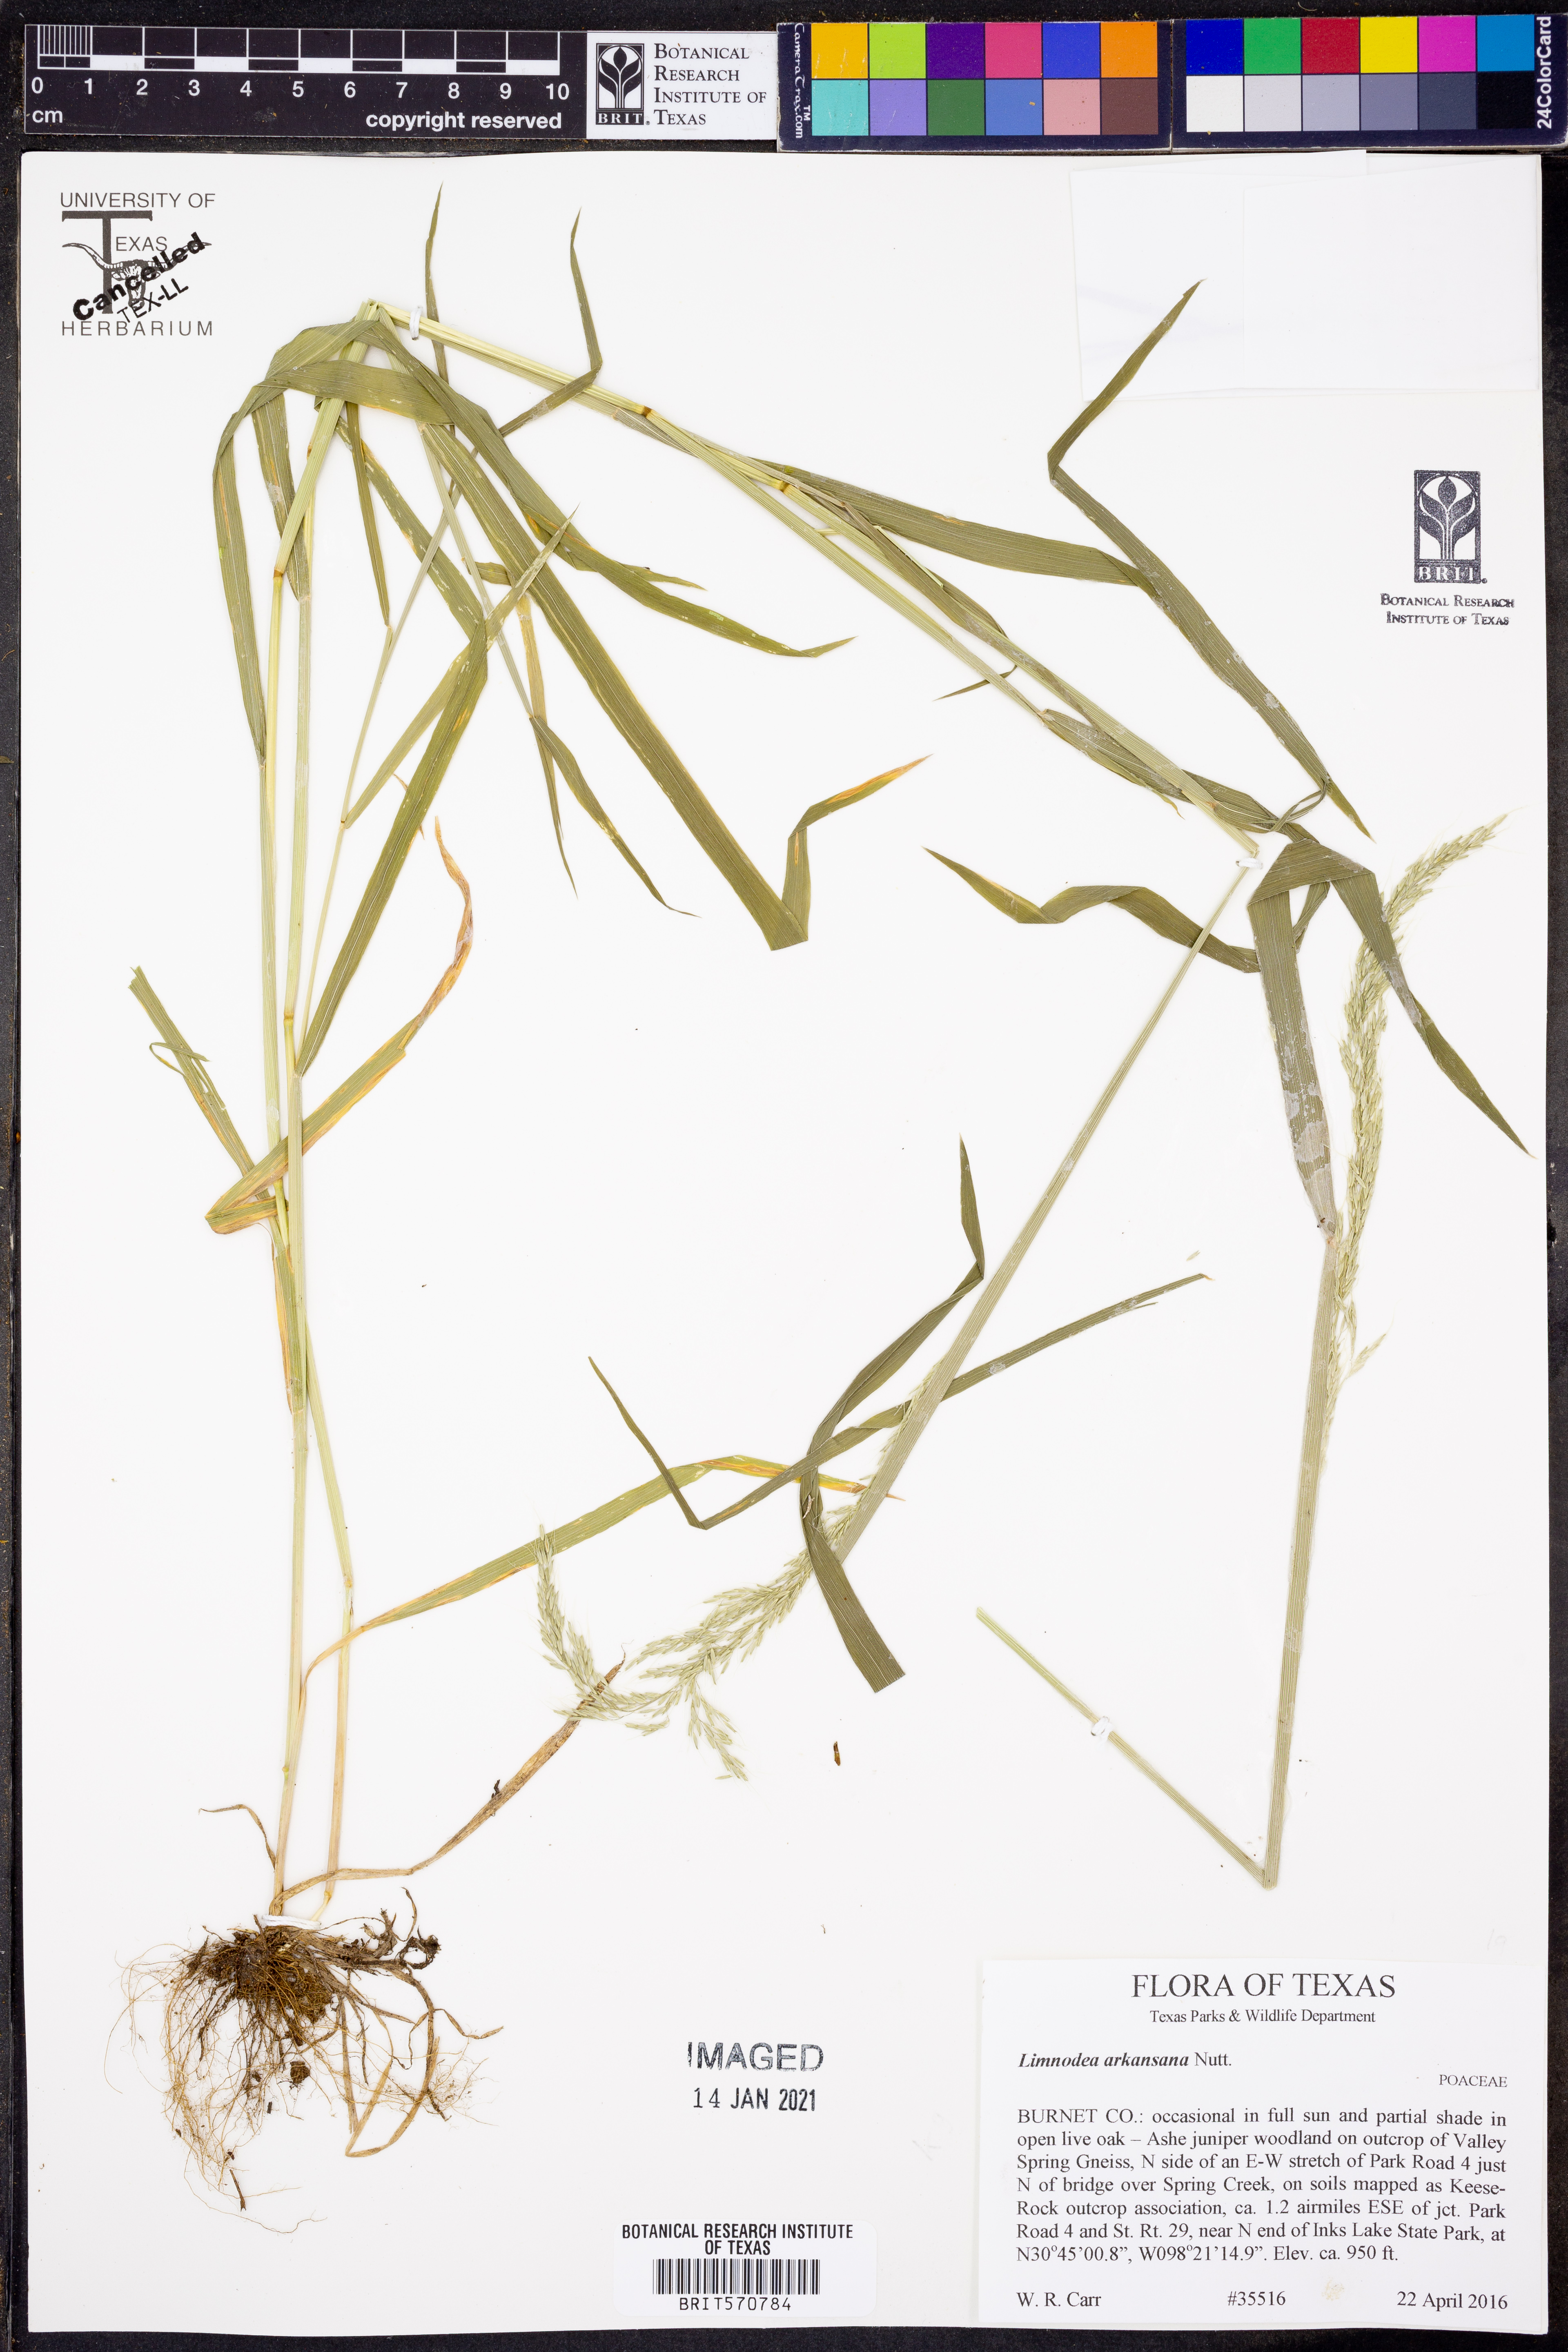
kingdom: Plantae
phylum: Tracheophyta
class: Liliopsida
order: Poales
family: Poaceae
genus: Limnodea
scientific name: Limnodea arkansana
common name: Ozark-grass
